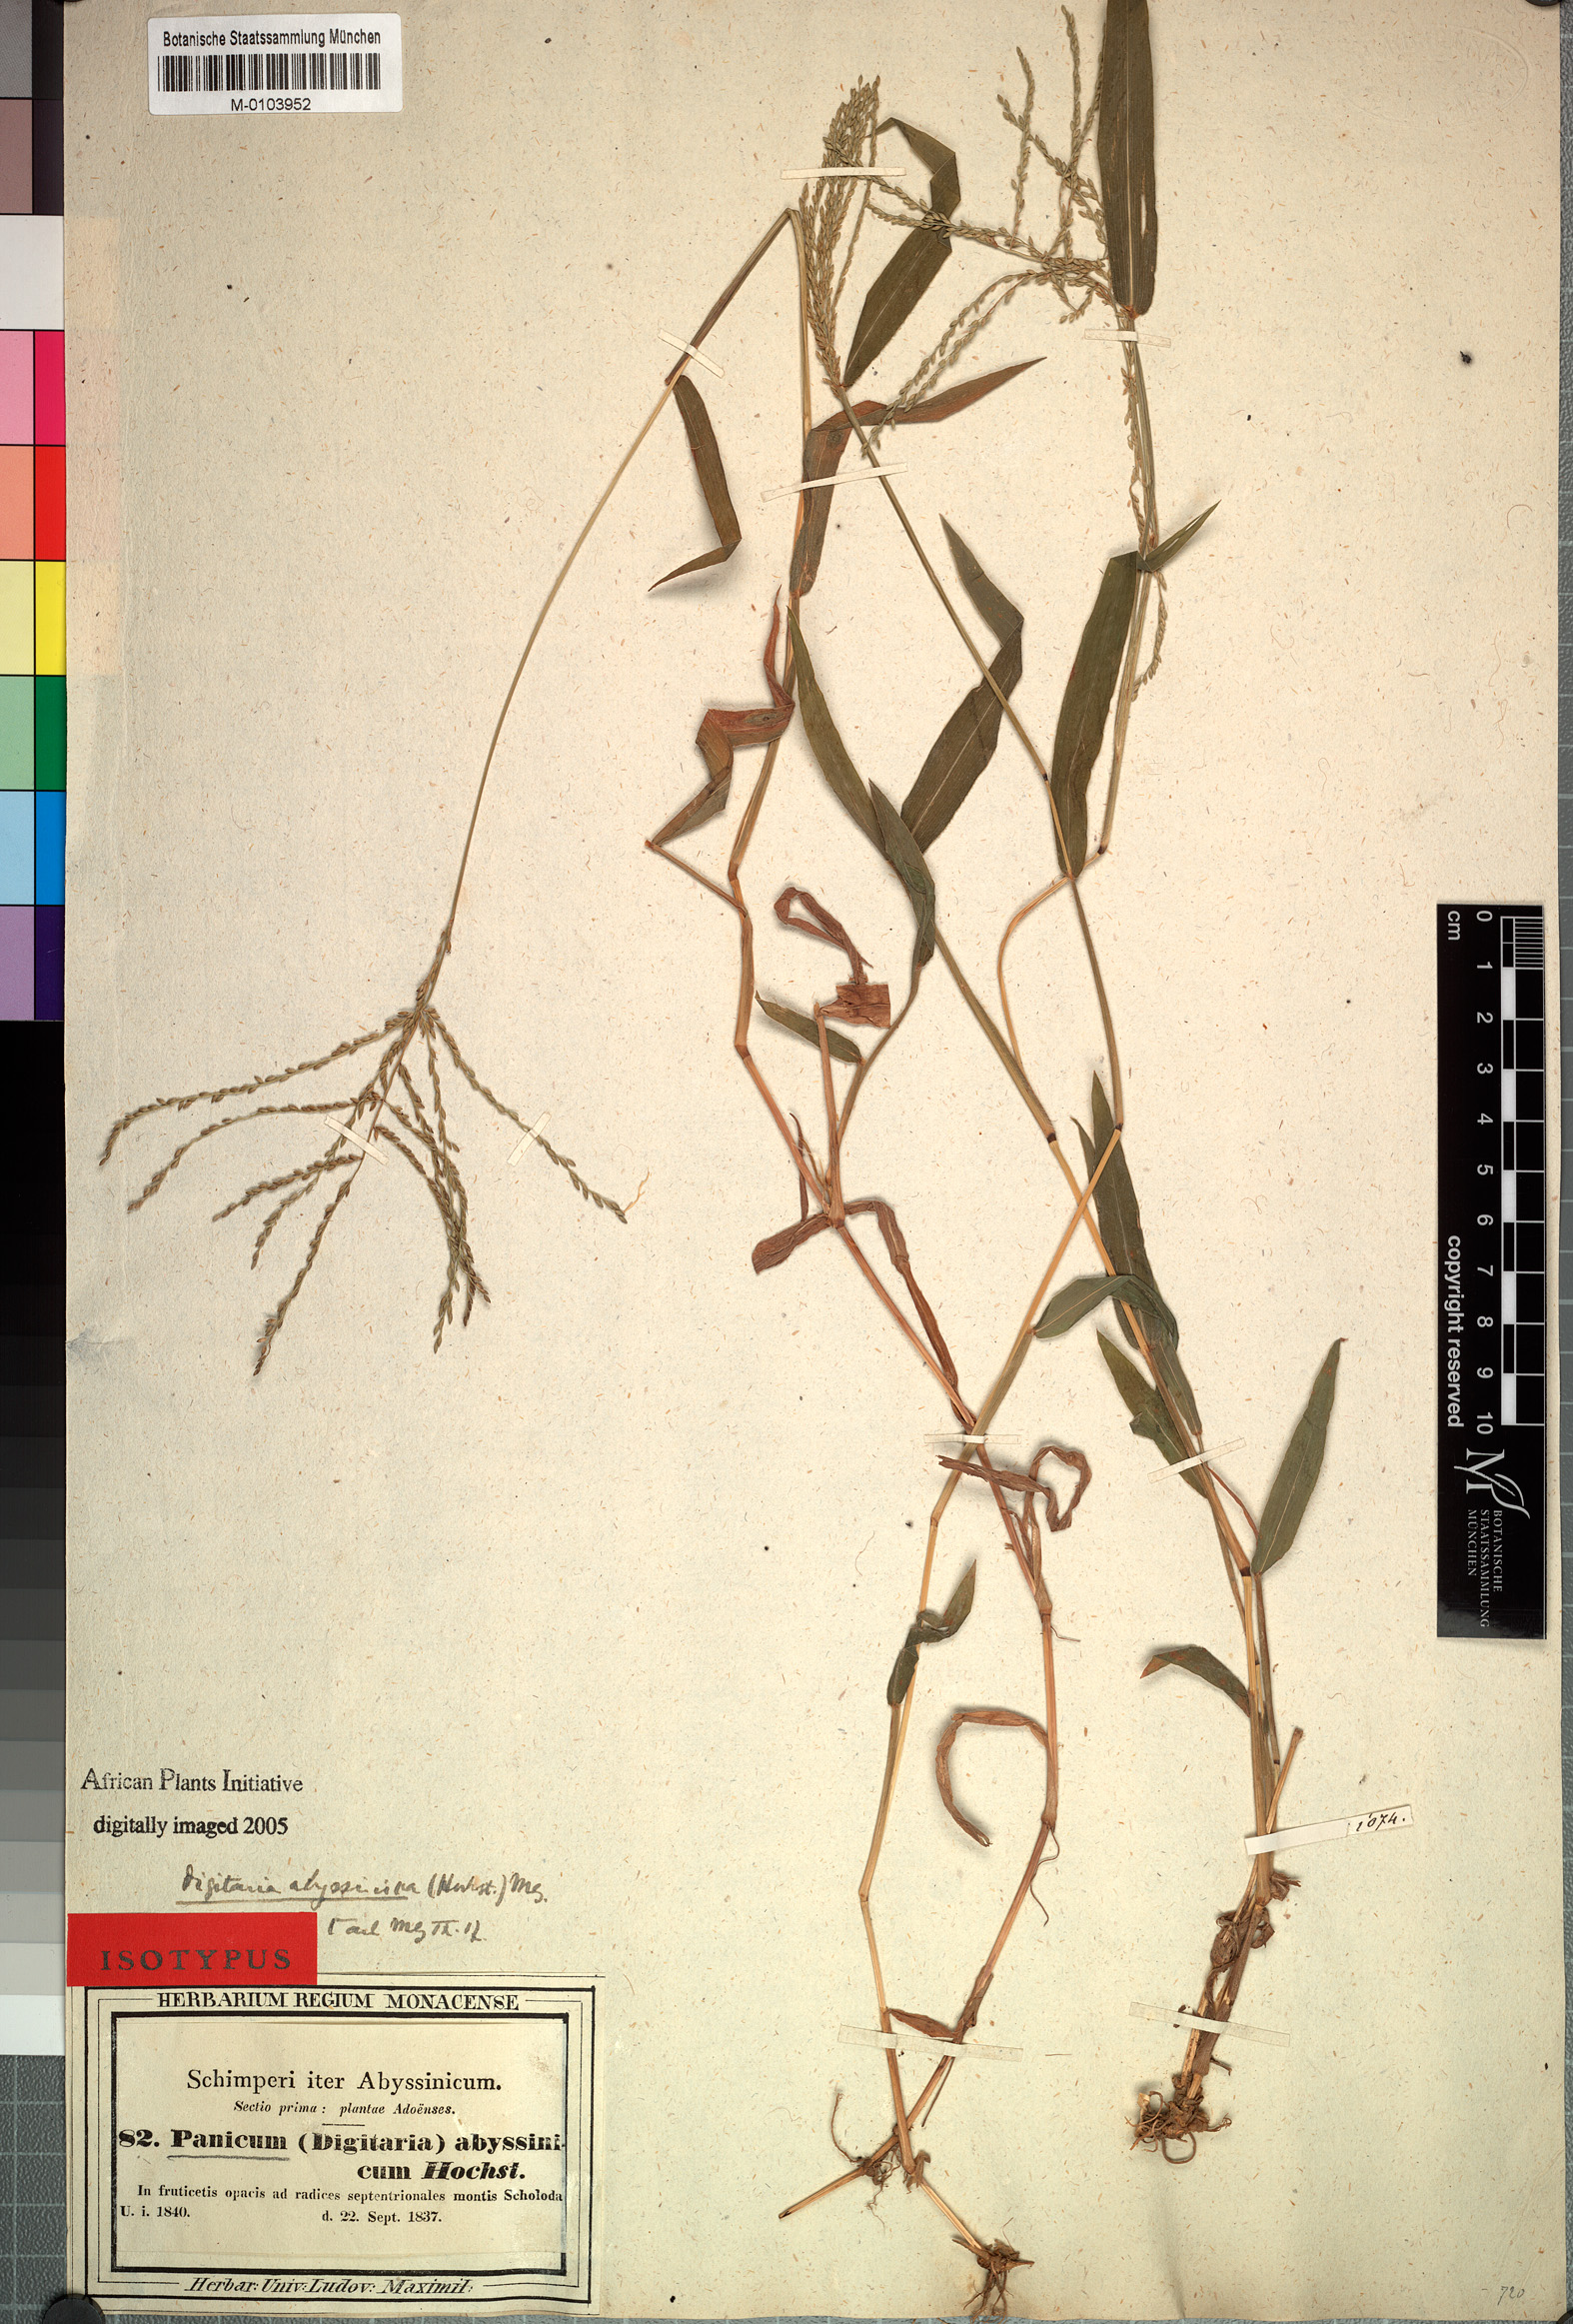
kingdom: Plantae
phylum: Tracheophyta
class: Liliopsida
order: Poales
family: Poaceae
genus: Digitaria
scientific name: Digitaria abyssinica
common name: African couchgrass
